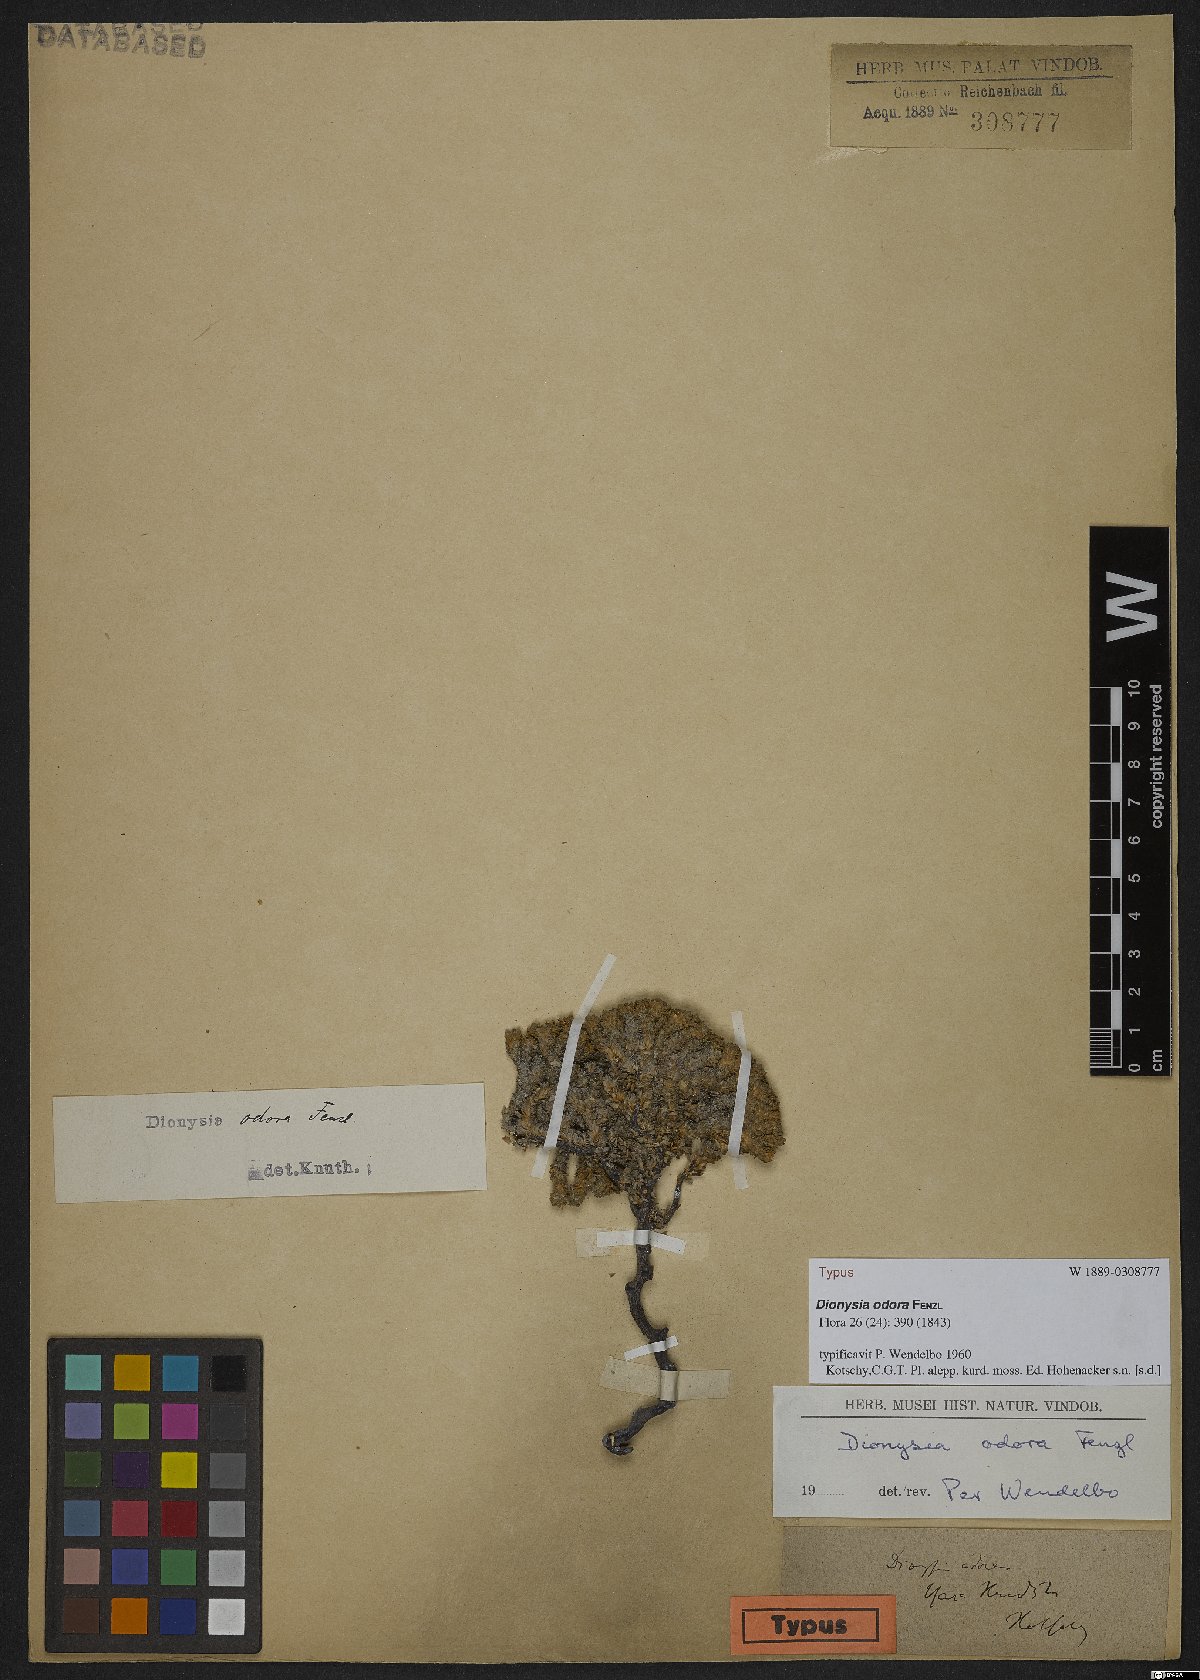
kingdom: Plantae
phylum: Tracheophyta
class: Magnoliopsida
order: Ericales
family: Primulaceae
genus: Dionysia
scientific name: Dionysia odora
